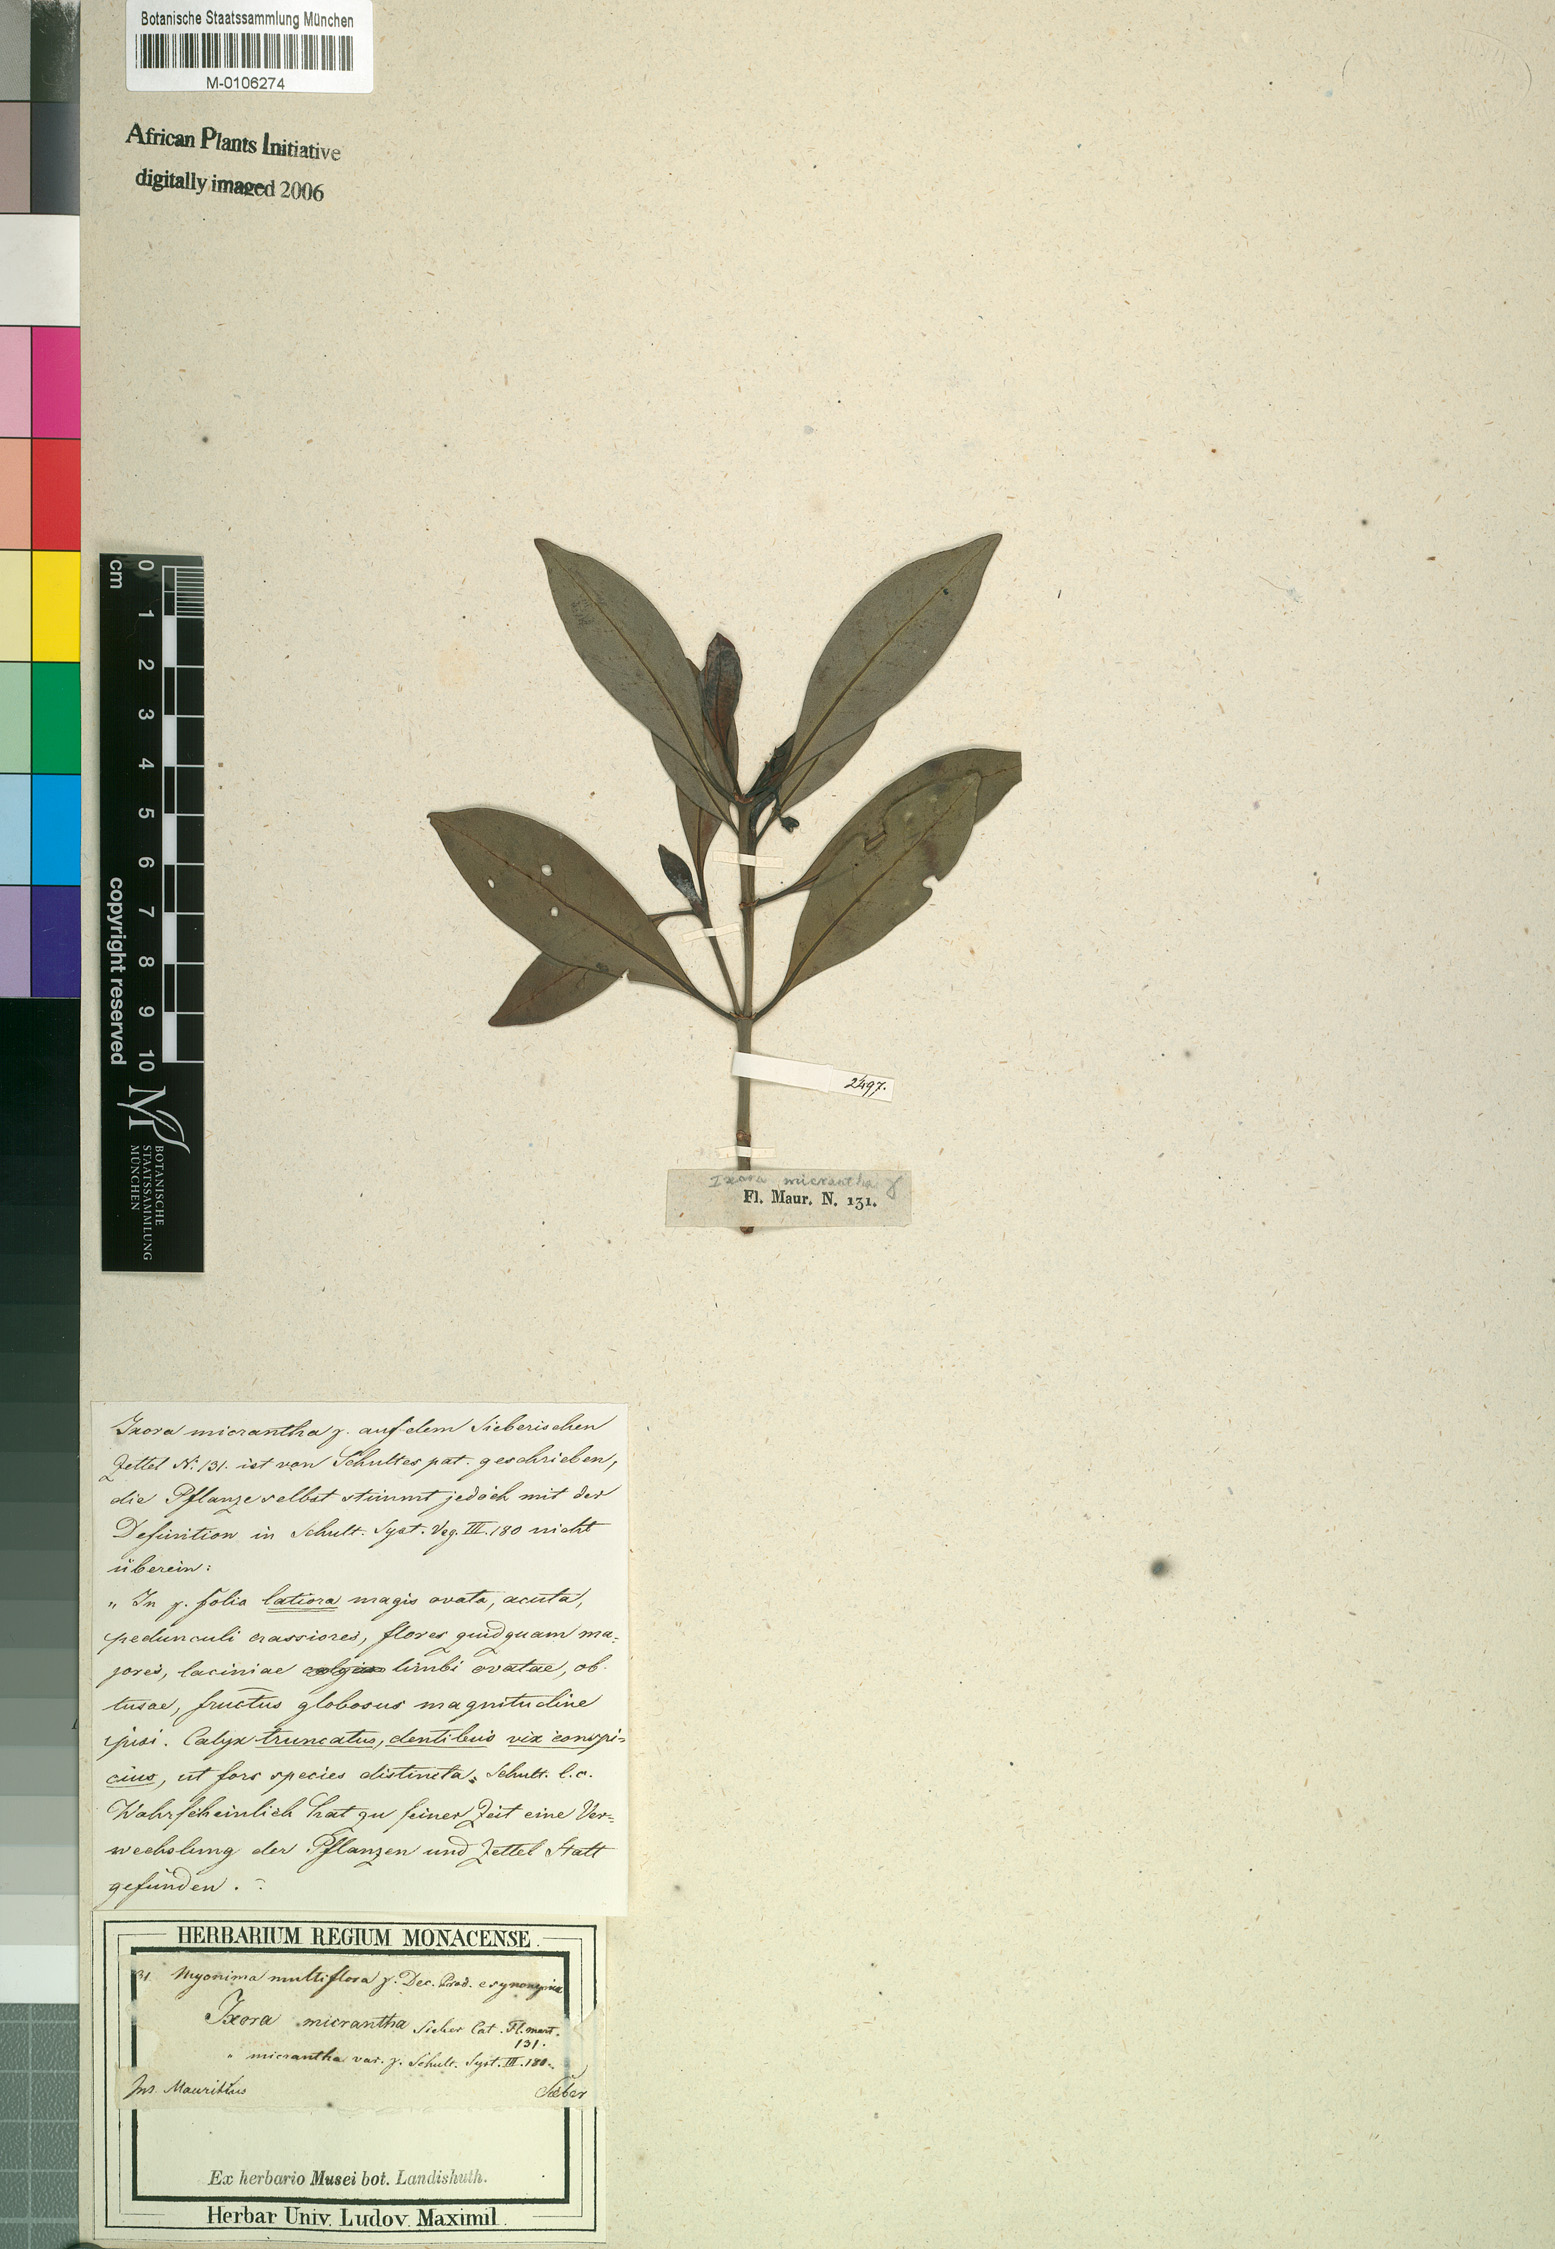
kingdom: Plantae
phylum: Tracheophyta
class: Magnoliopsida
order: Gentianales
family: Rubiaceae
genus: Ixora
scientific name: Ixora parviflora
